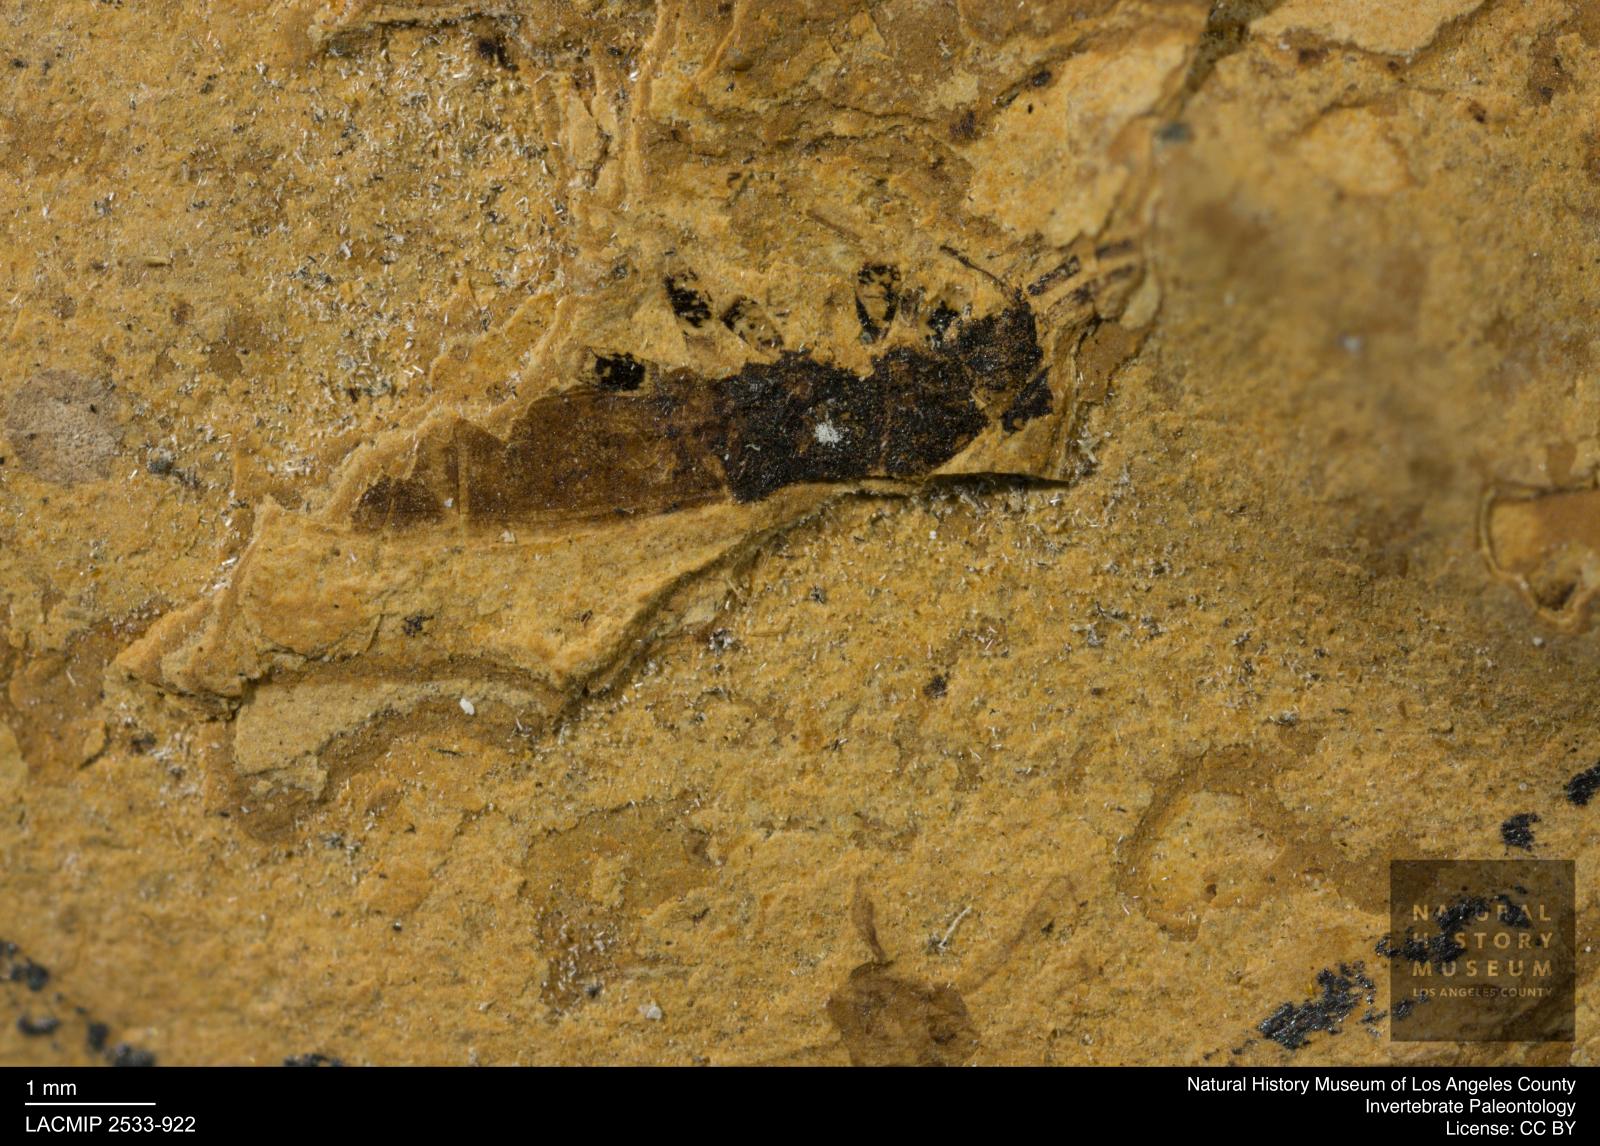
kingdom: Animalia
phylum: Arthropoda
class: Insecta
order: Hemiptera
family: Blissidae
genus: Ischnodemus
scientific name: Ischnodemus rottensis
